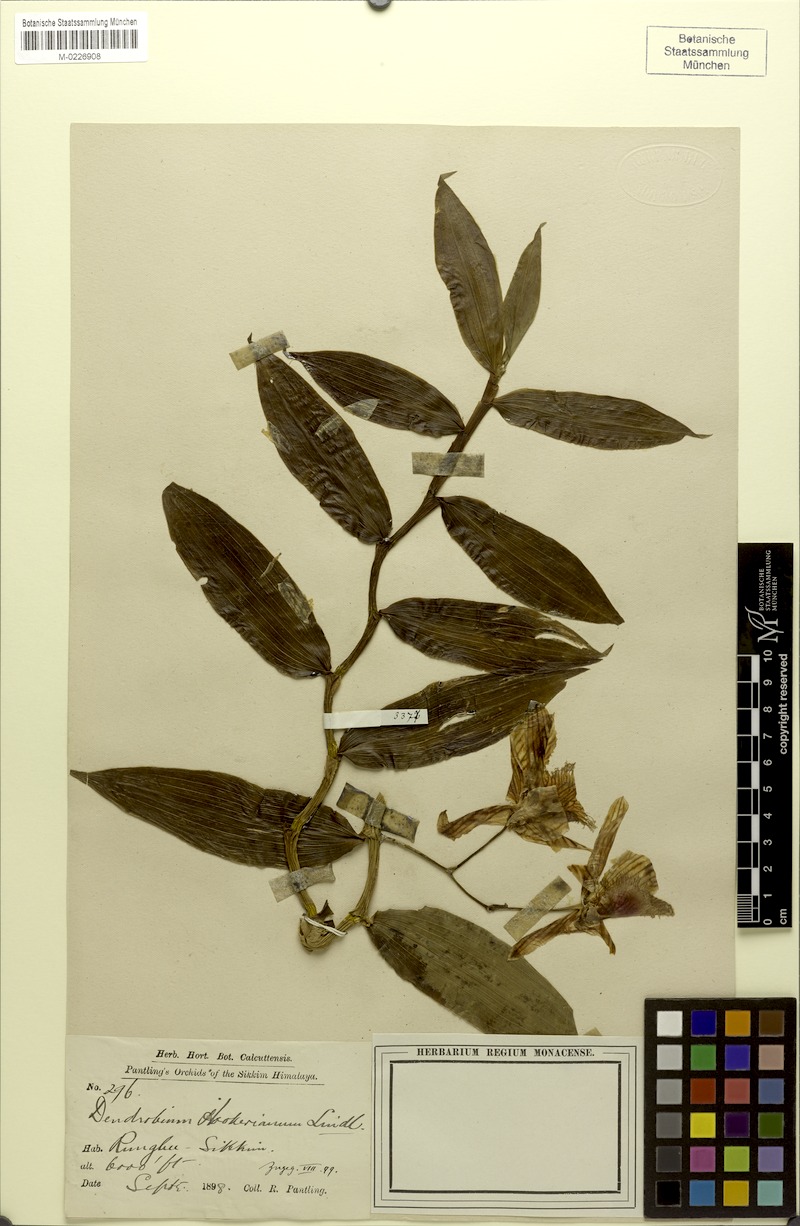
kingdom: Plantae
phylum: Tracheophyta
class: Liliopsida
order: Asparagales
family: Orchidaceae
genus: Dendrobium
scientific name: Dendrobium hookerianum
